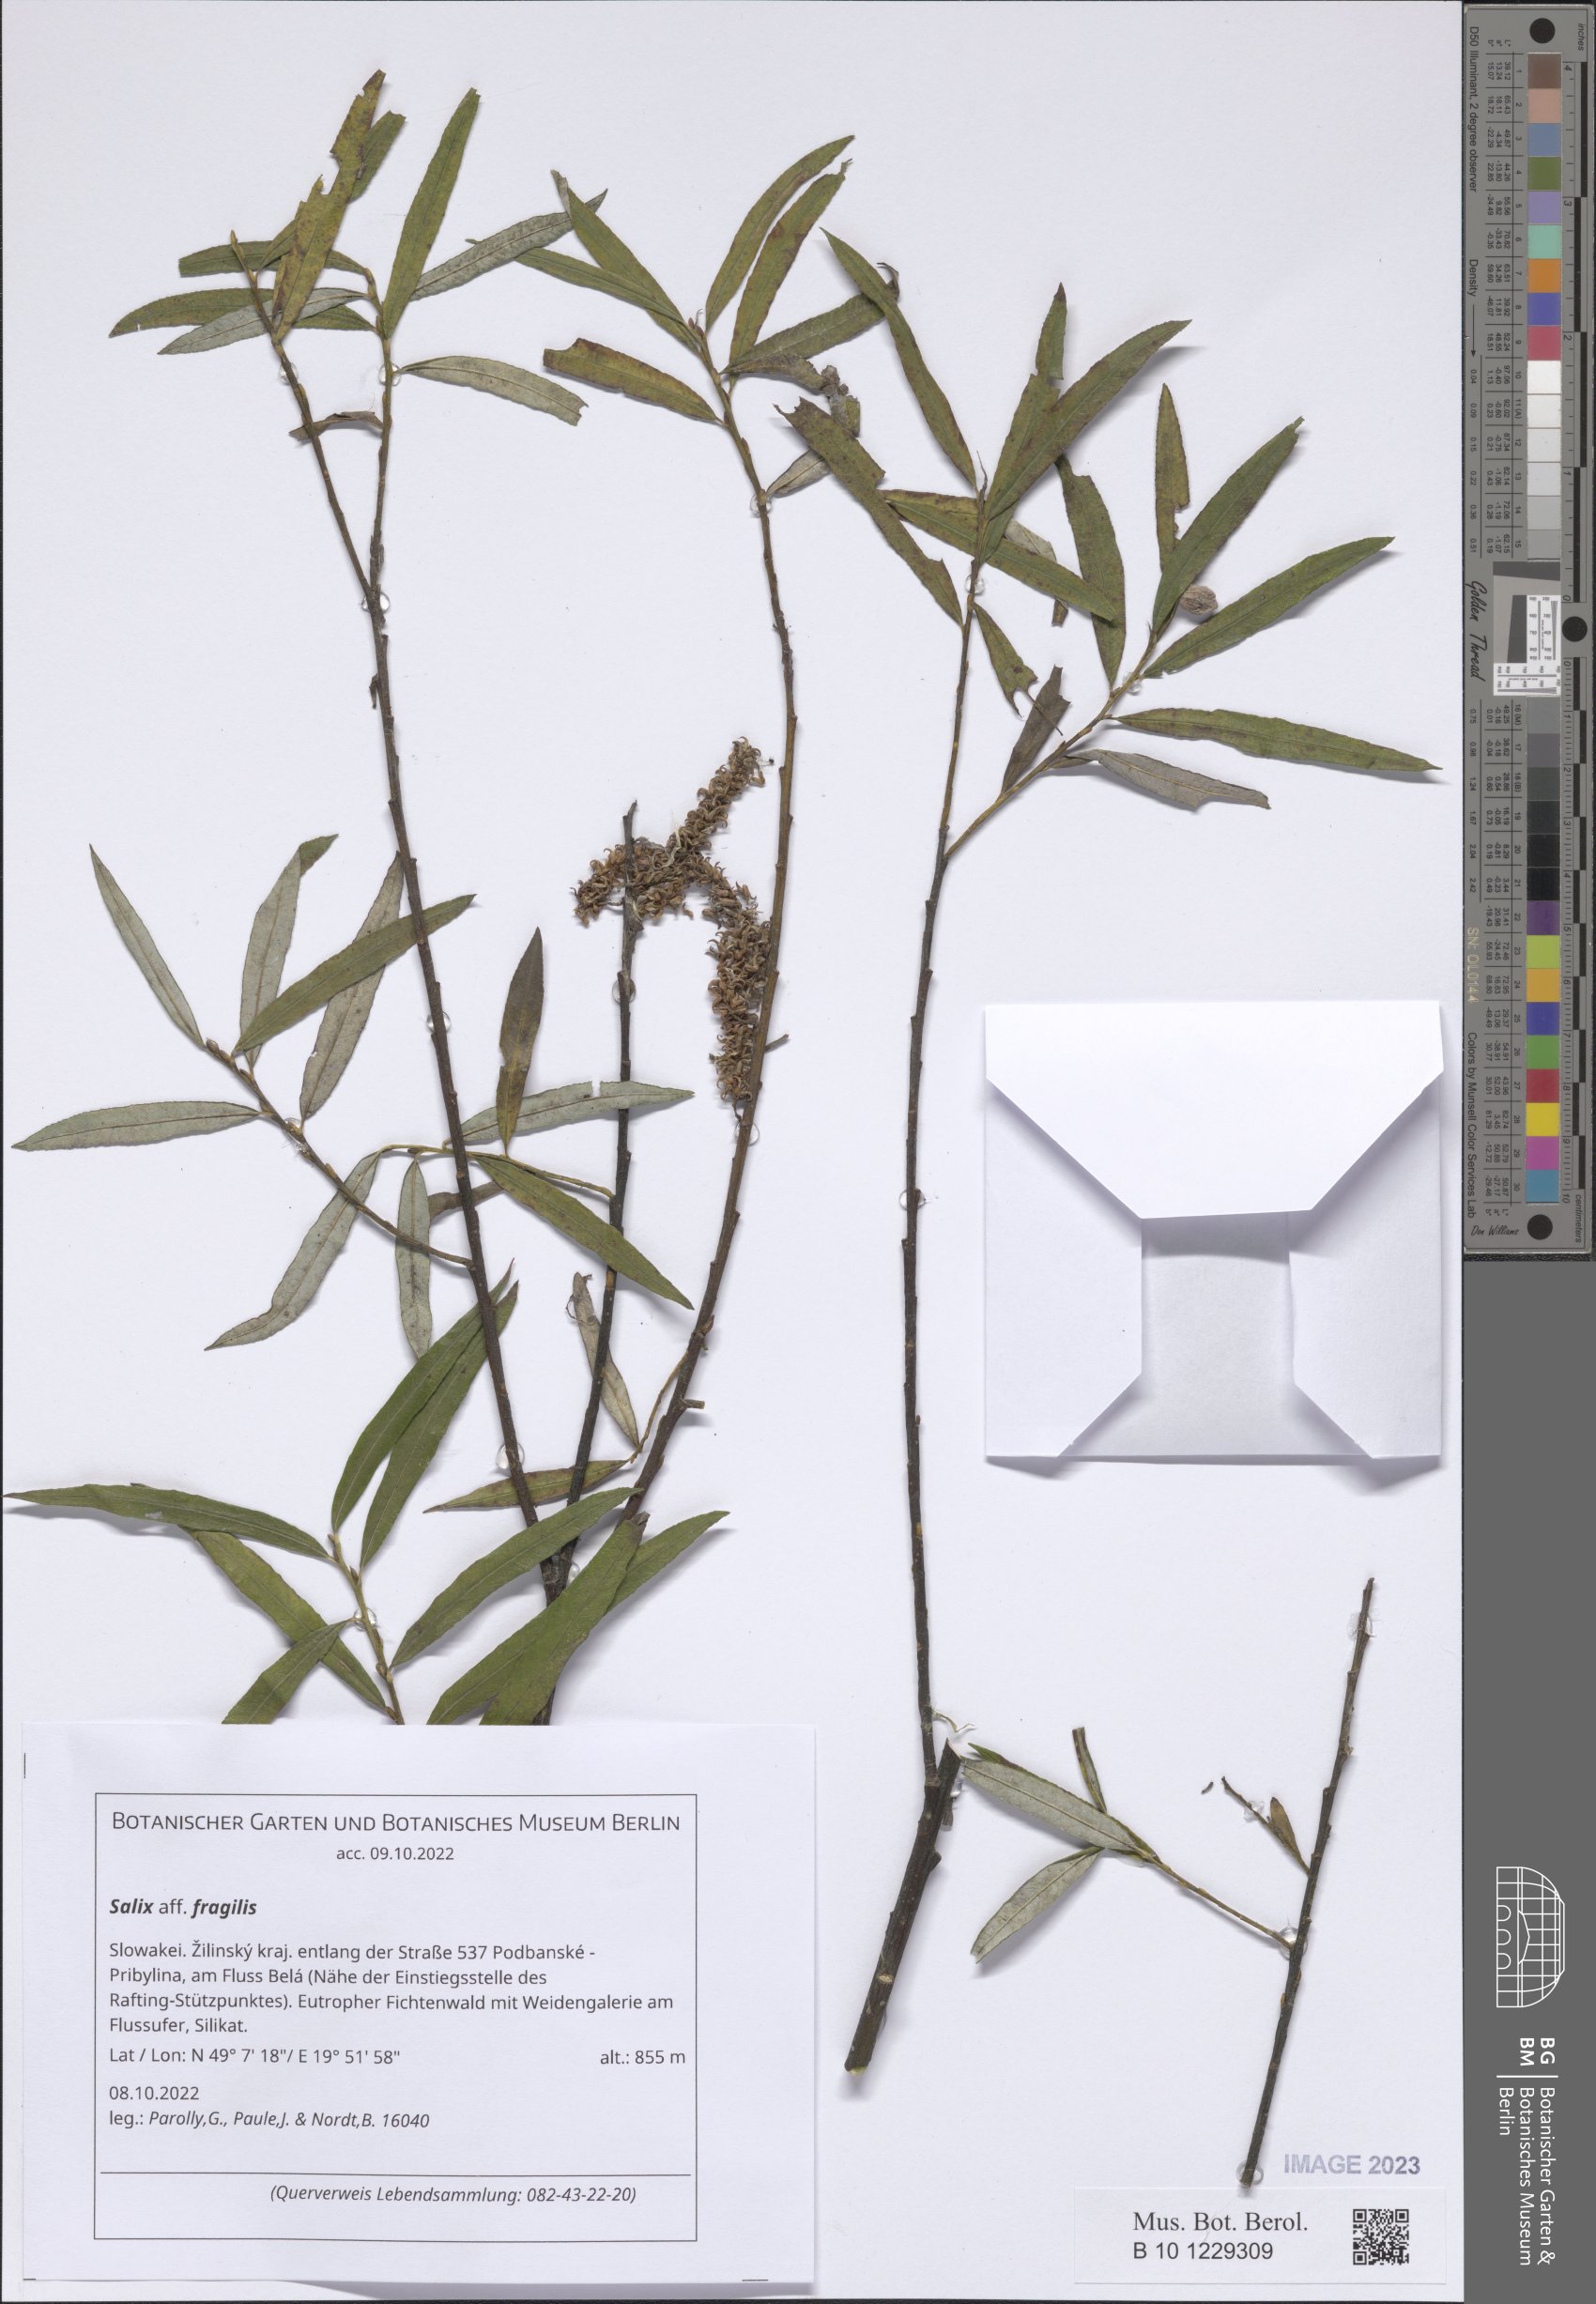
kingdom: Plantae
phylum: Tracheophyta
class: Magnoliopsida
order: Malpighiales
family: Salicaceae
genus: Salix
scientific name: Salix fragilis
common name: Crack willow
